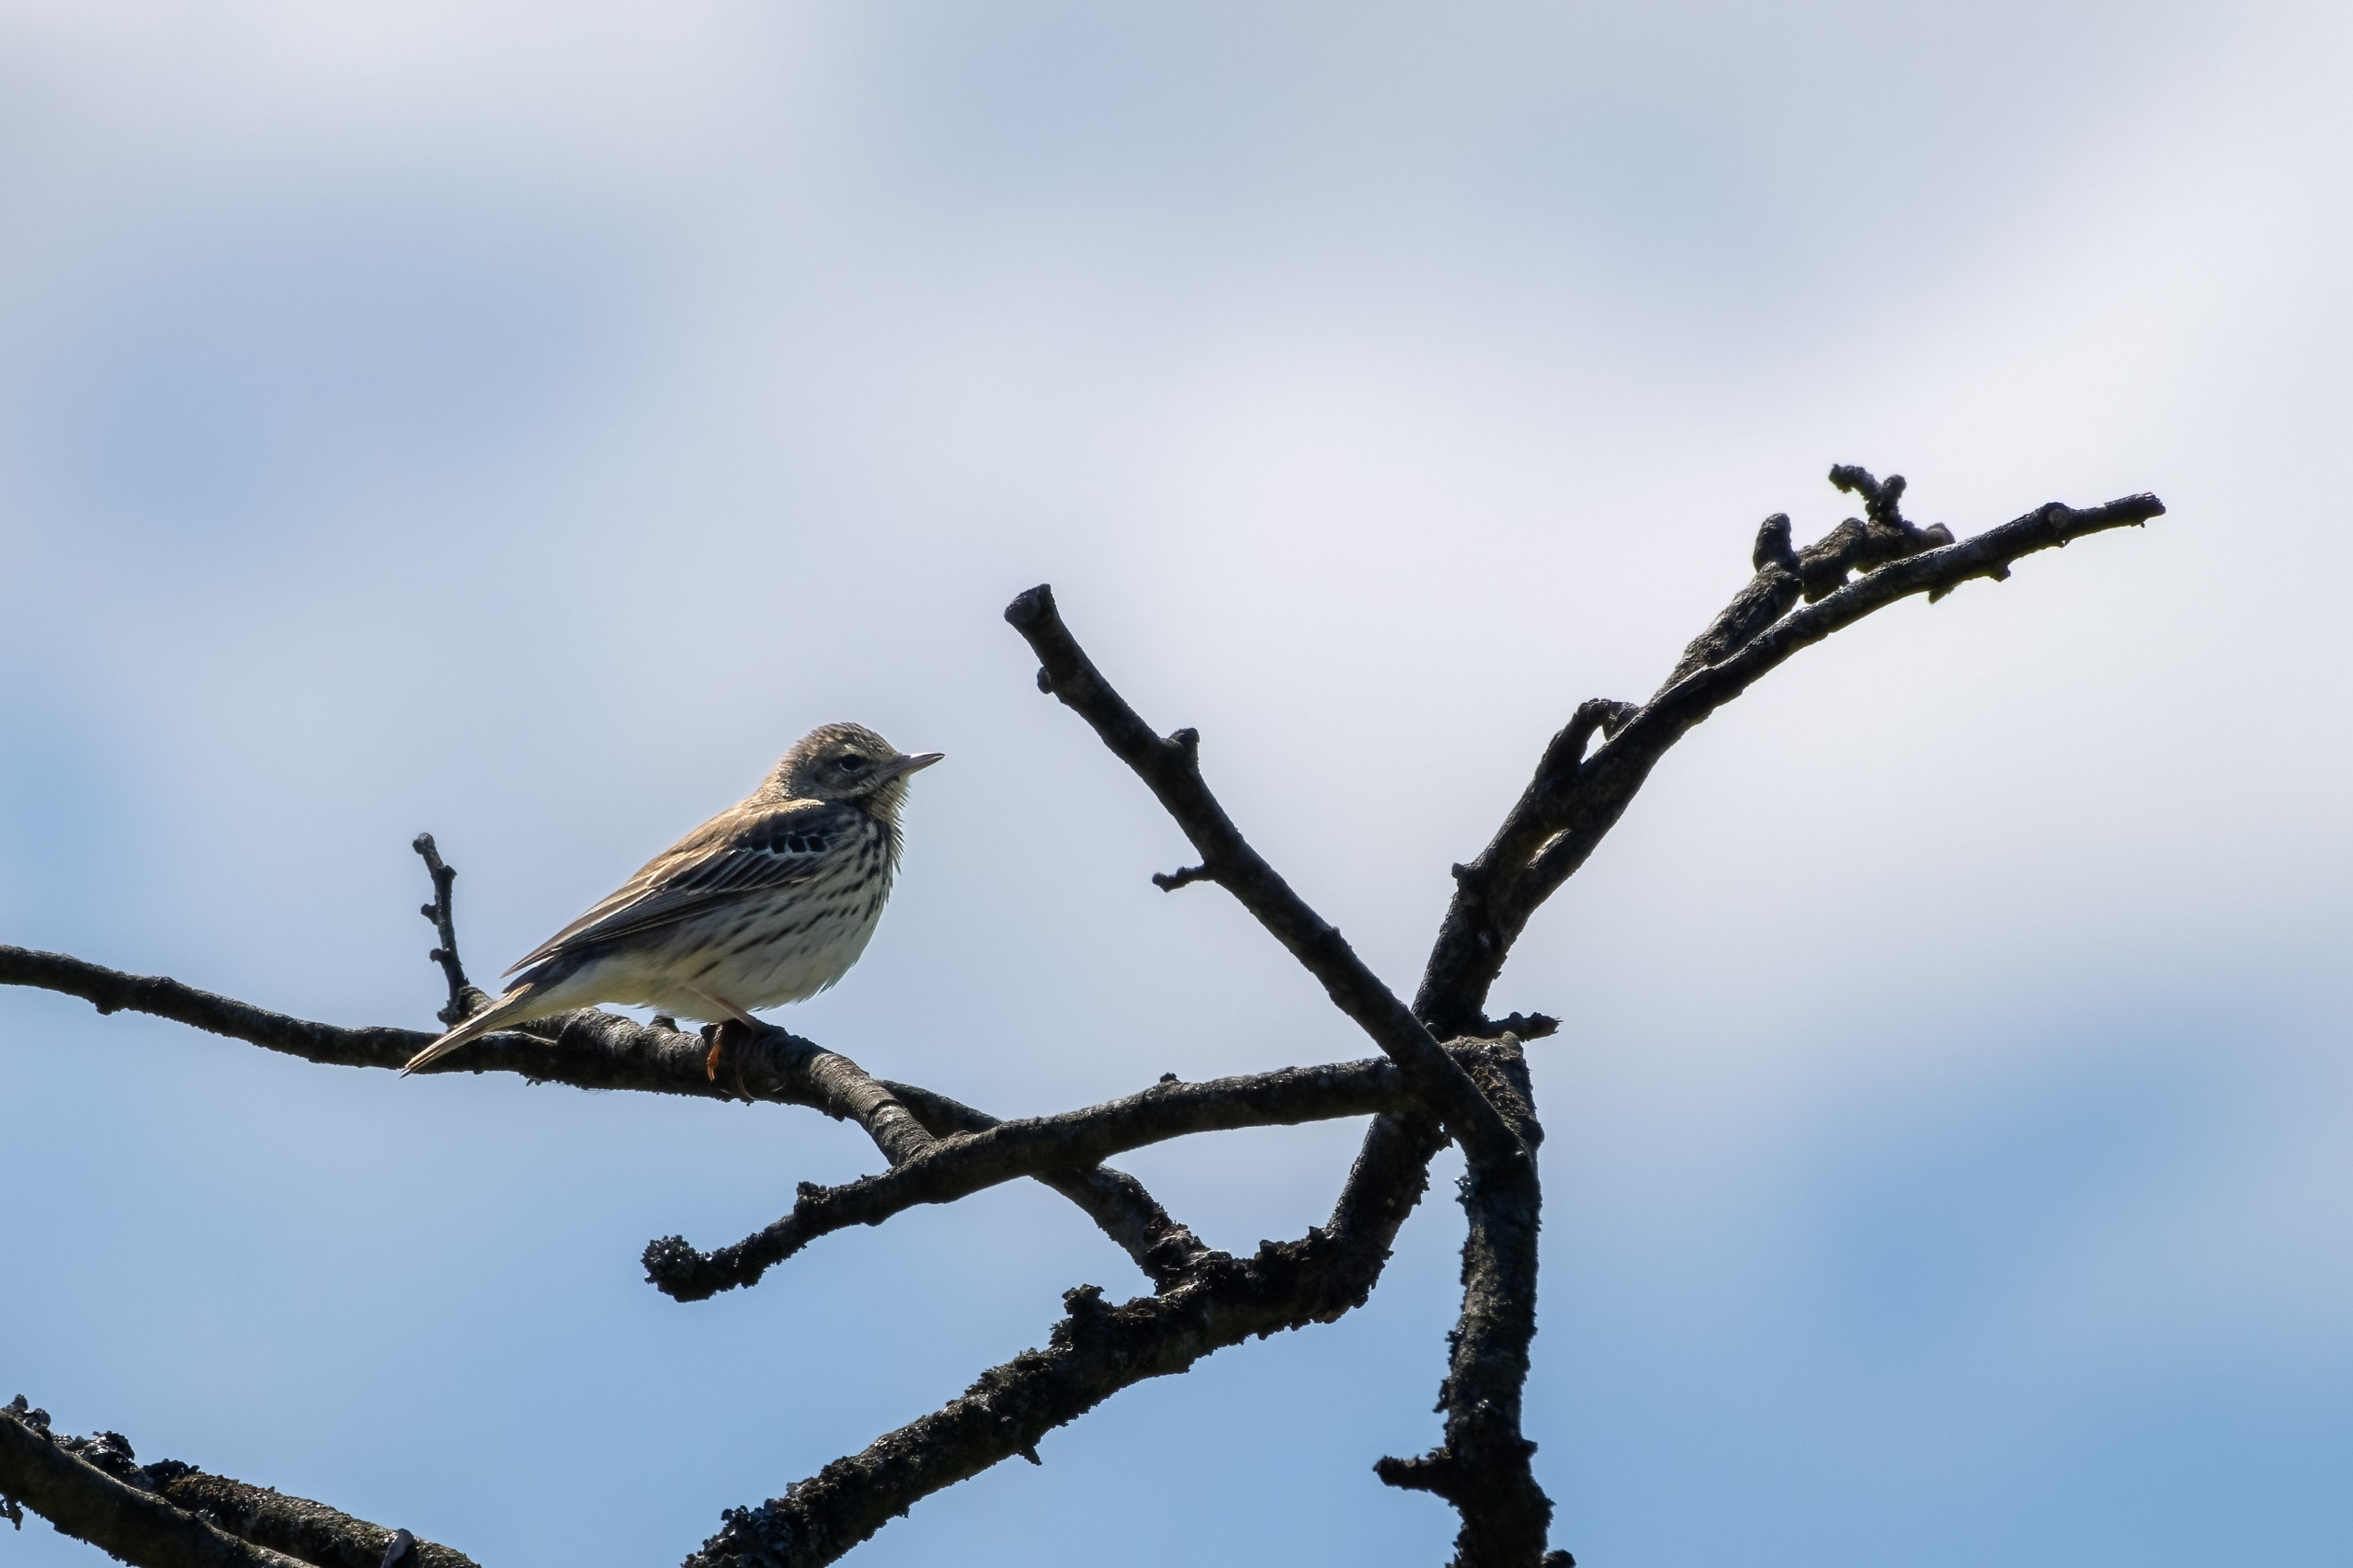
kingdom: Animalia
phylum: Chordata
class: Aves
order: Passeriformes
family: Motacillidae
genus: Anthus
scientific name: Anthus trivialis
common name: Skovpiber
